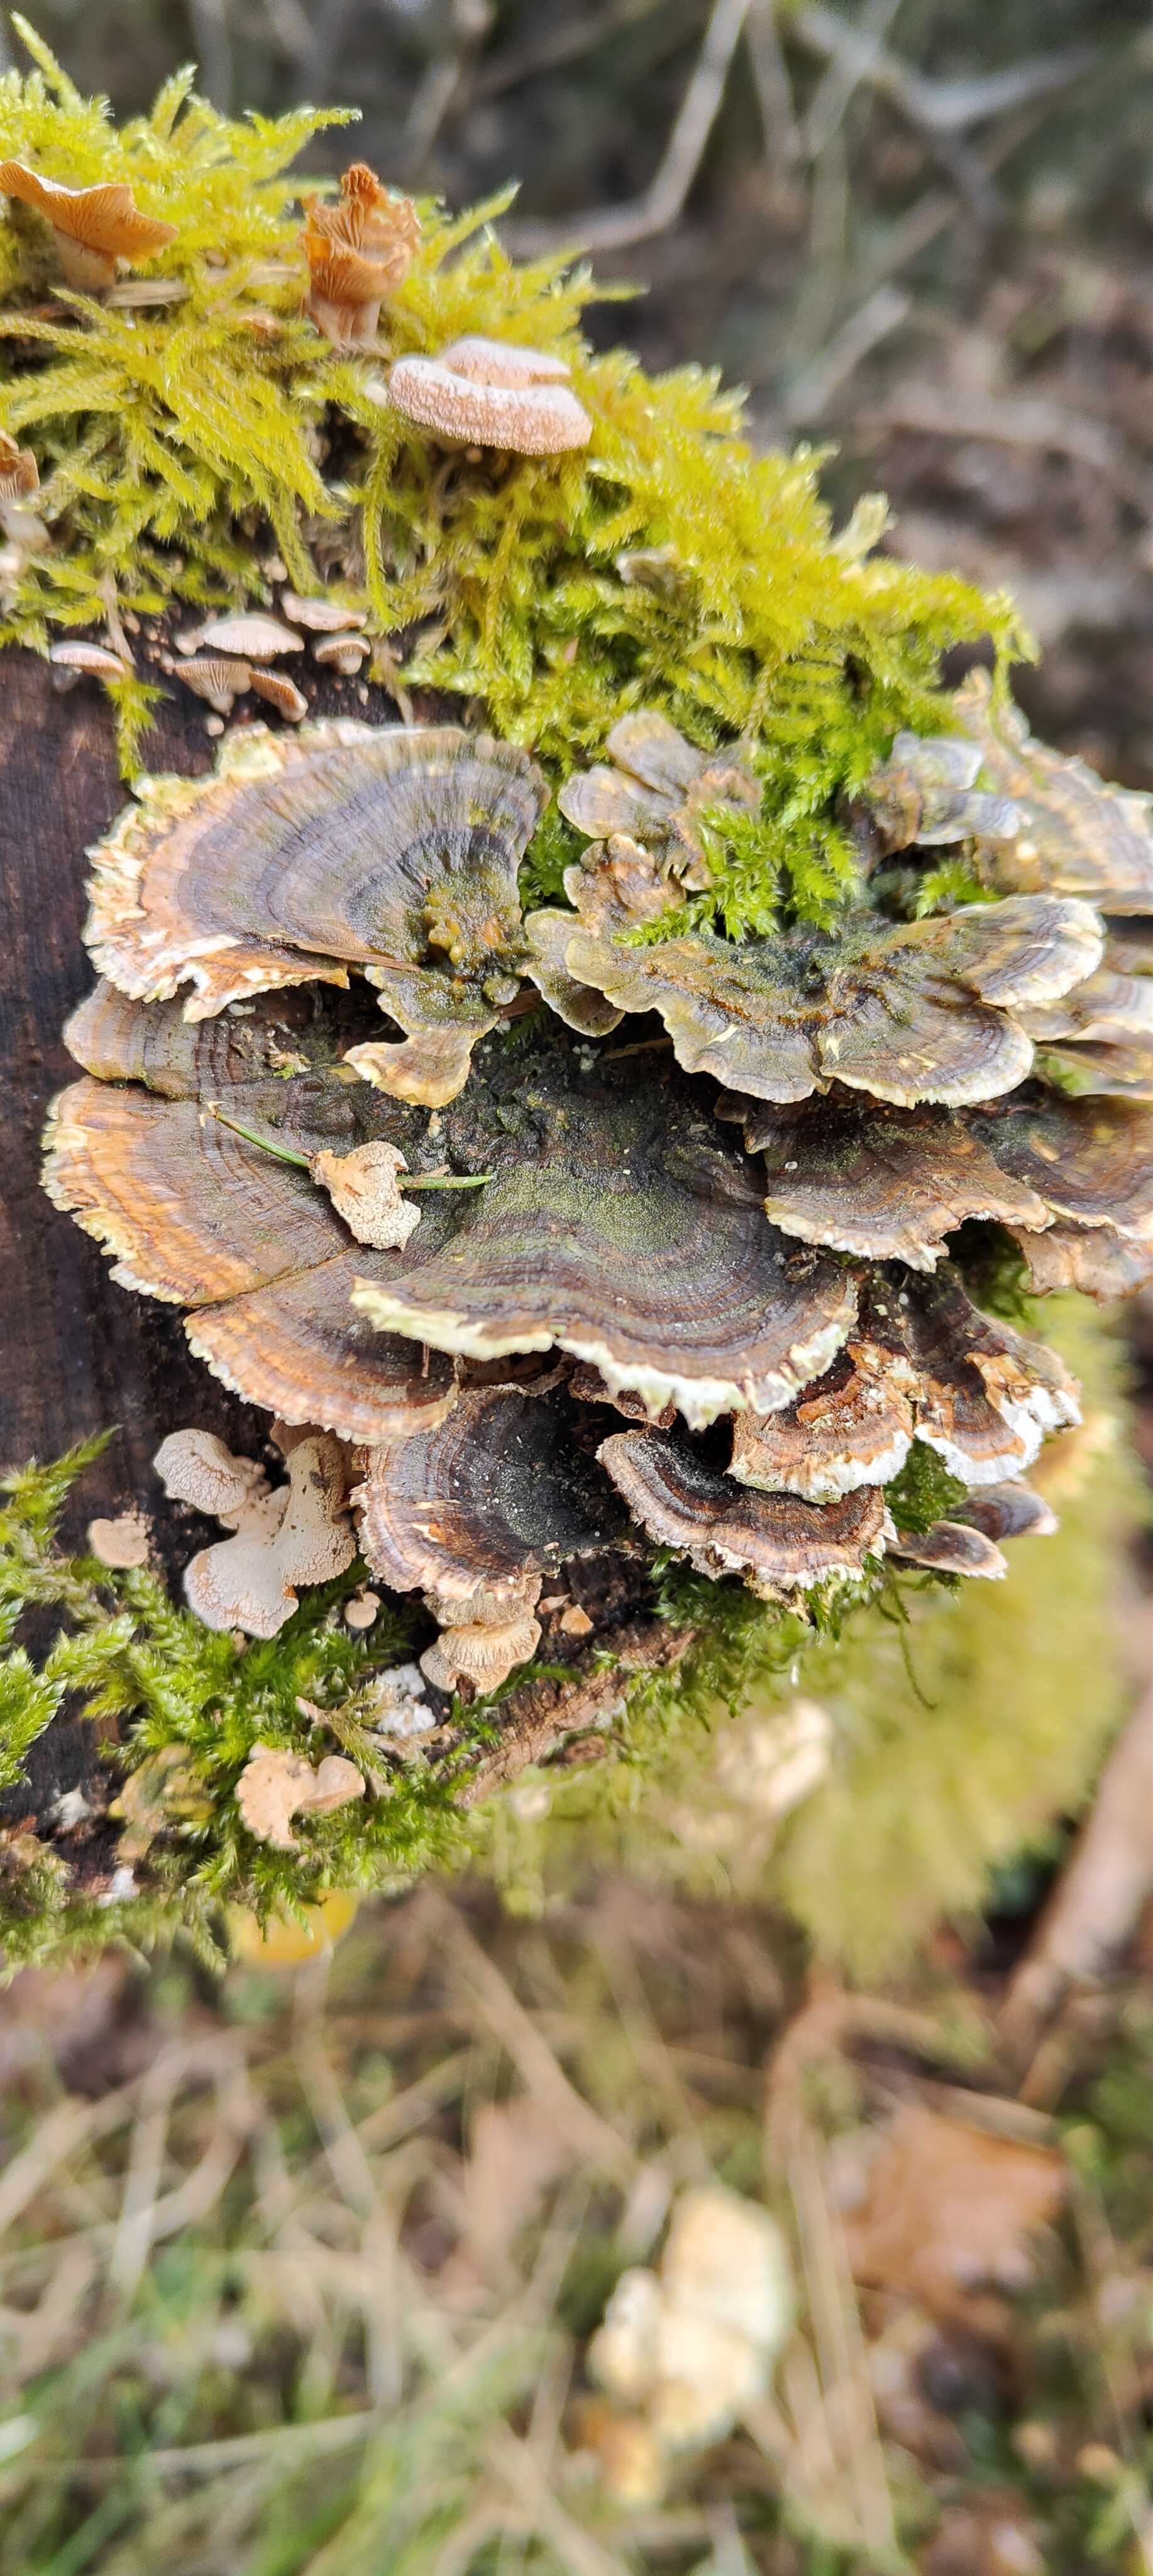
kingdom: Fungi
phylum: Basidiomycota
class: Agaricomycetes
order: Polyporales
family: Polyporaceae
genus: Trametes
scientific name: Trametes versicolor
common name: broget læderporesvamp
